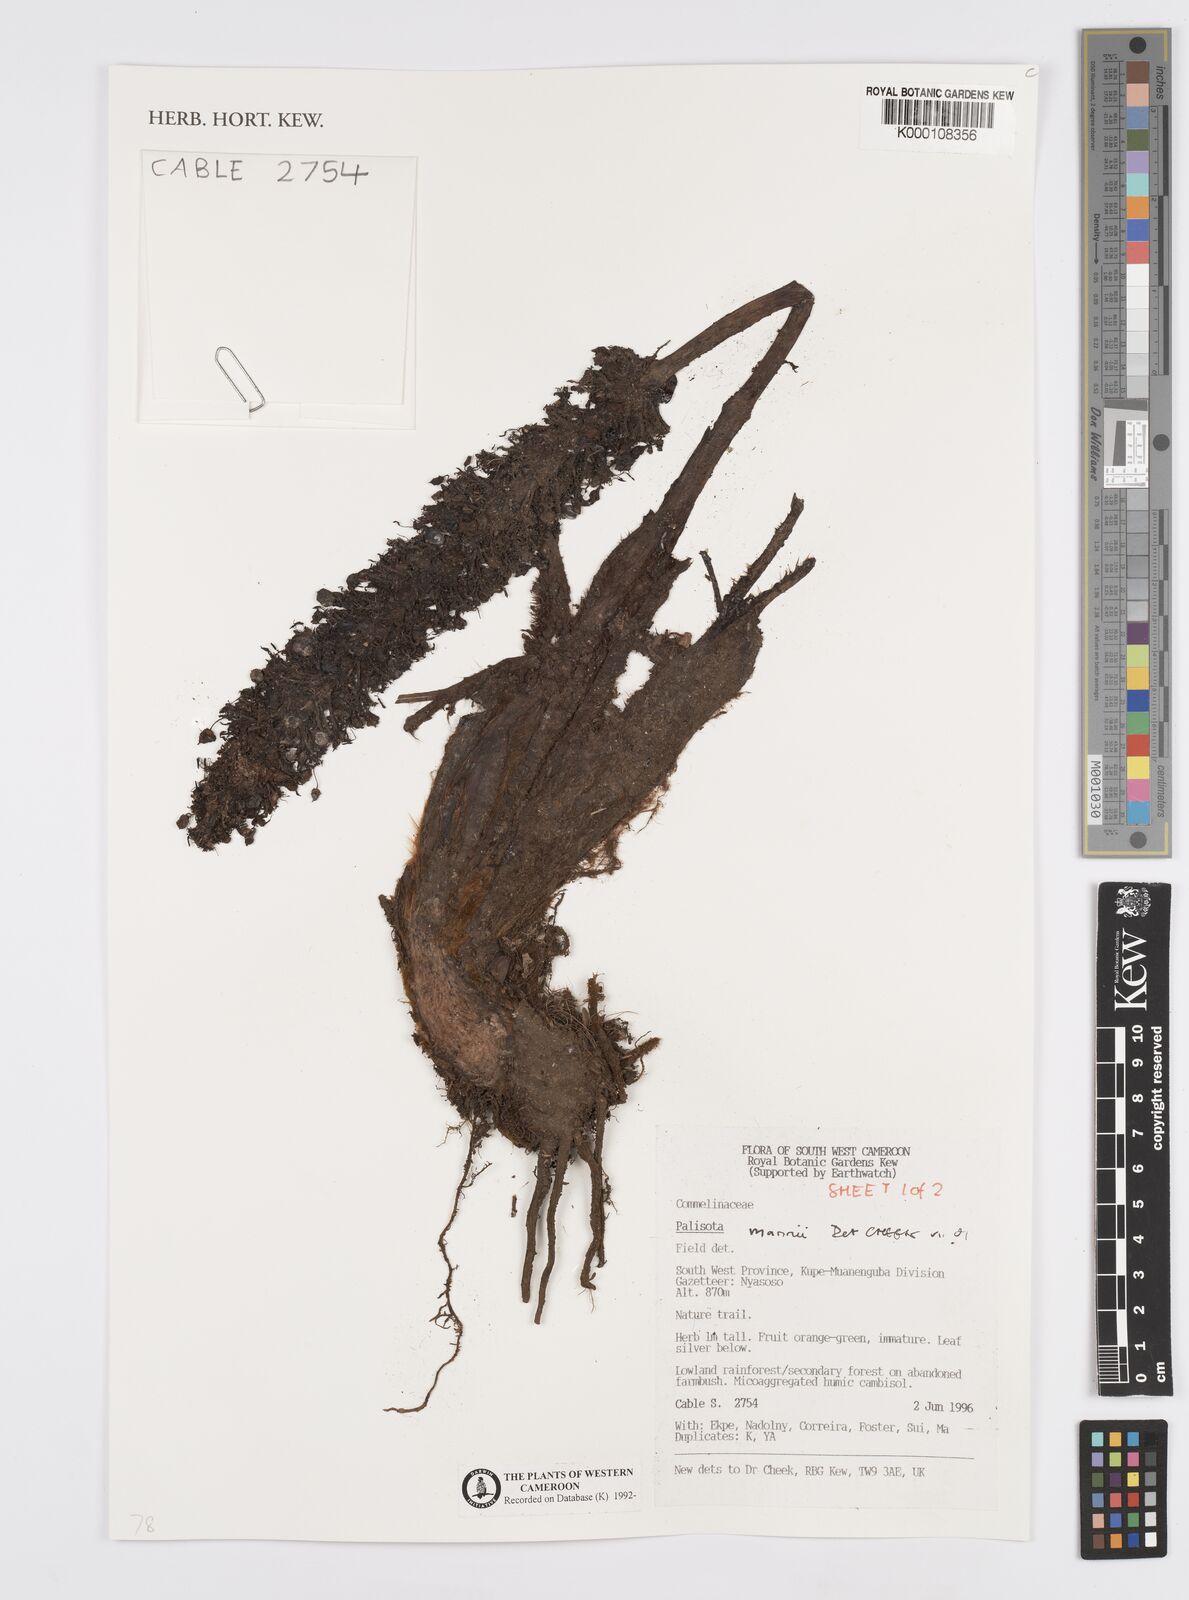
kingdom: Plantae
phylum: Tracheophyta
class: Liliopsida
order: Commelinales
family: Commelinaceae
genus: Palisota
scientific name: Palisota mannii
